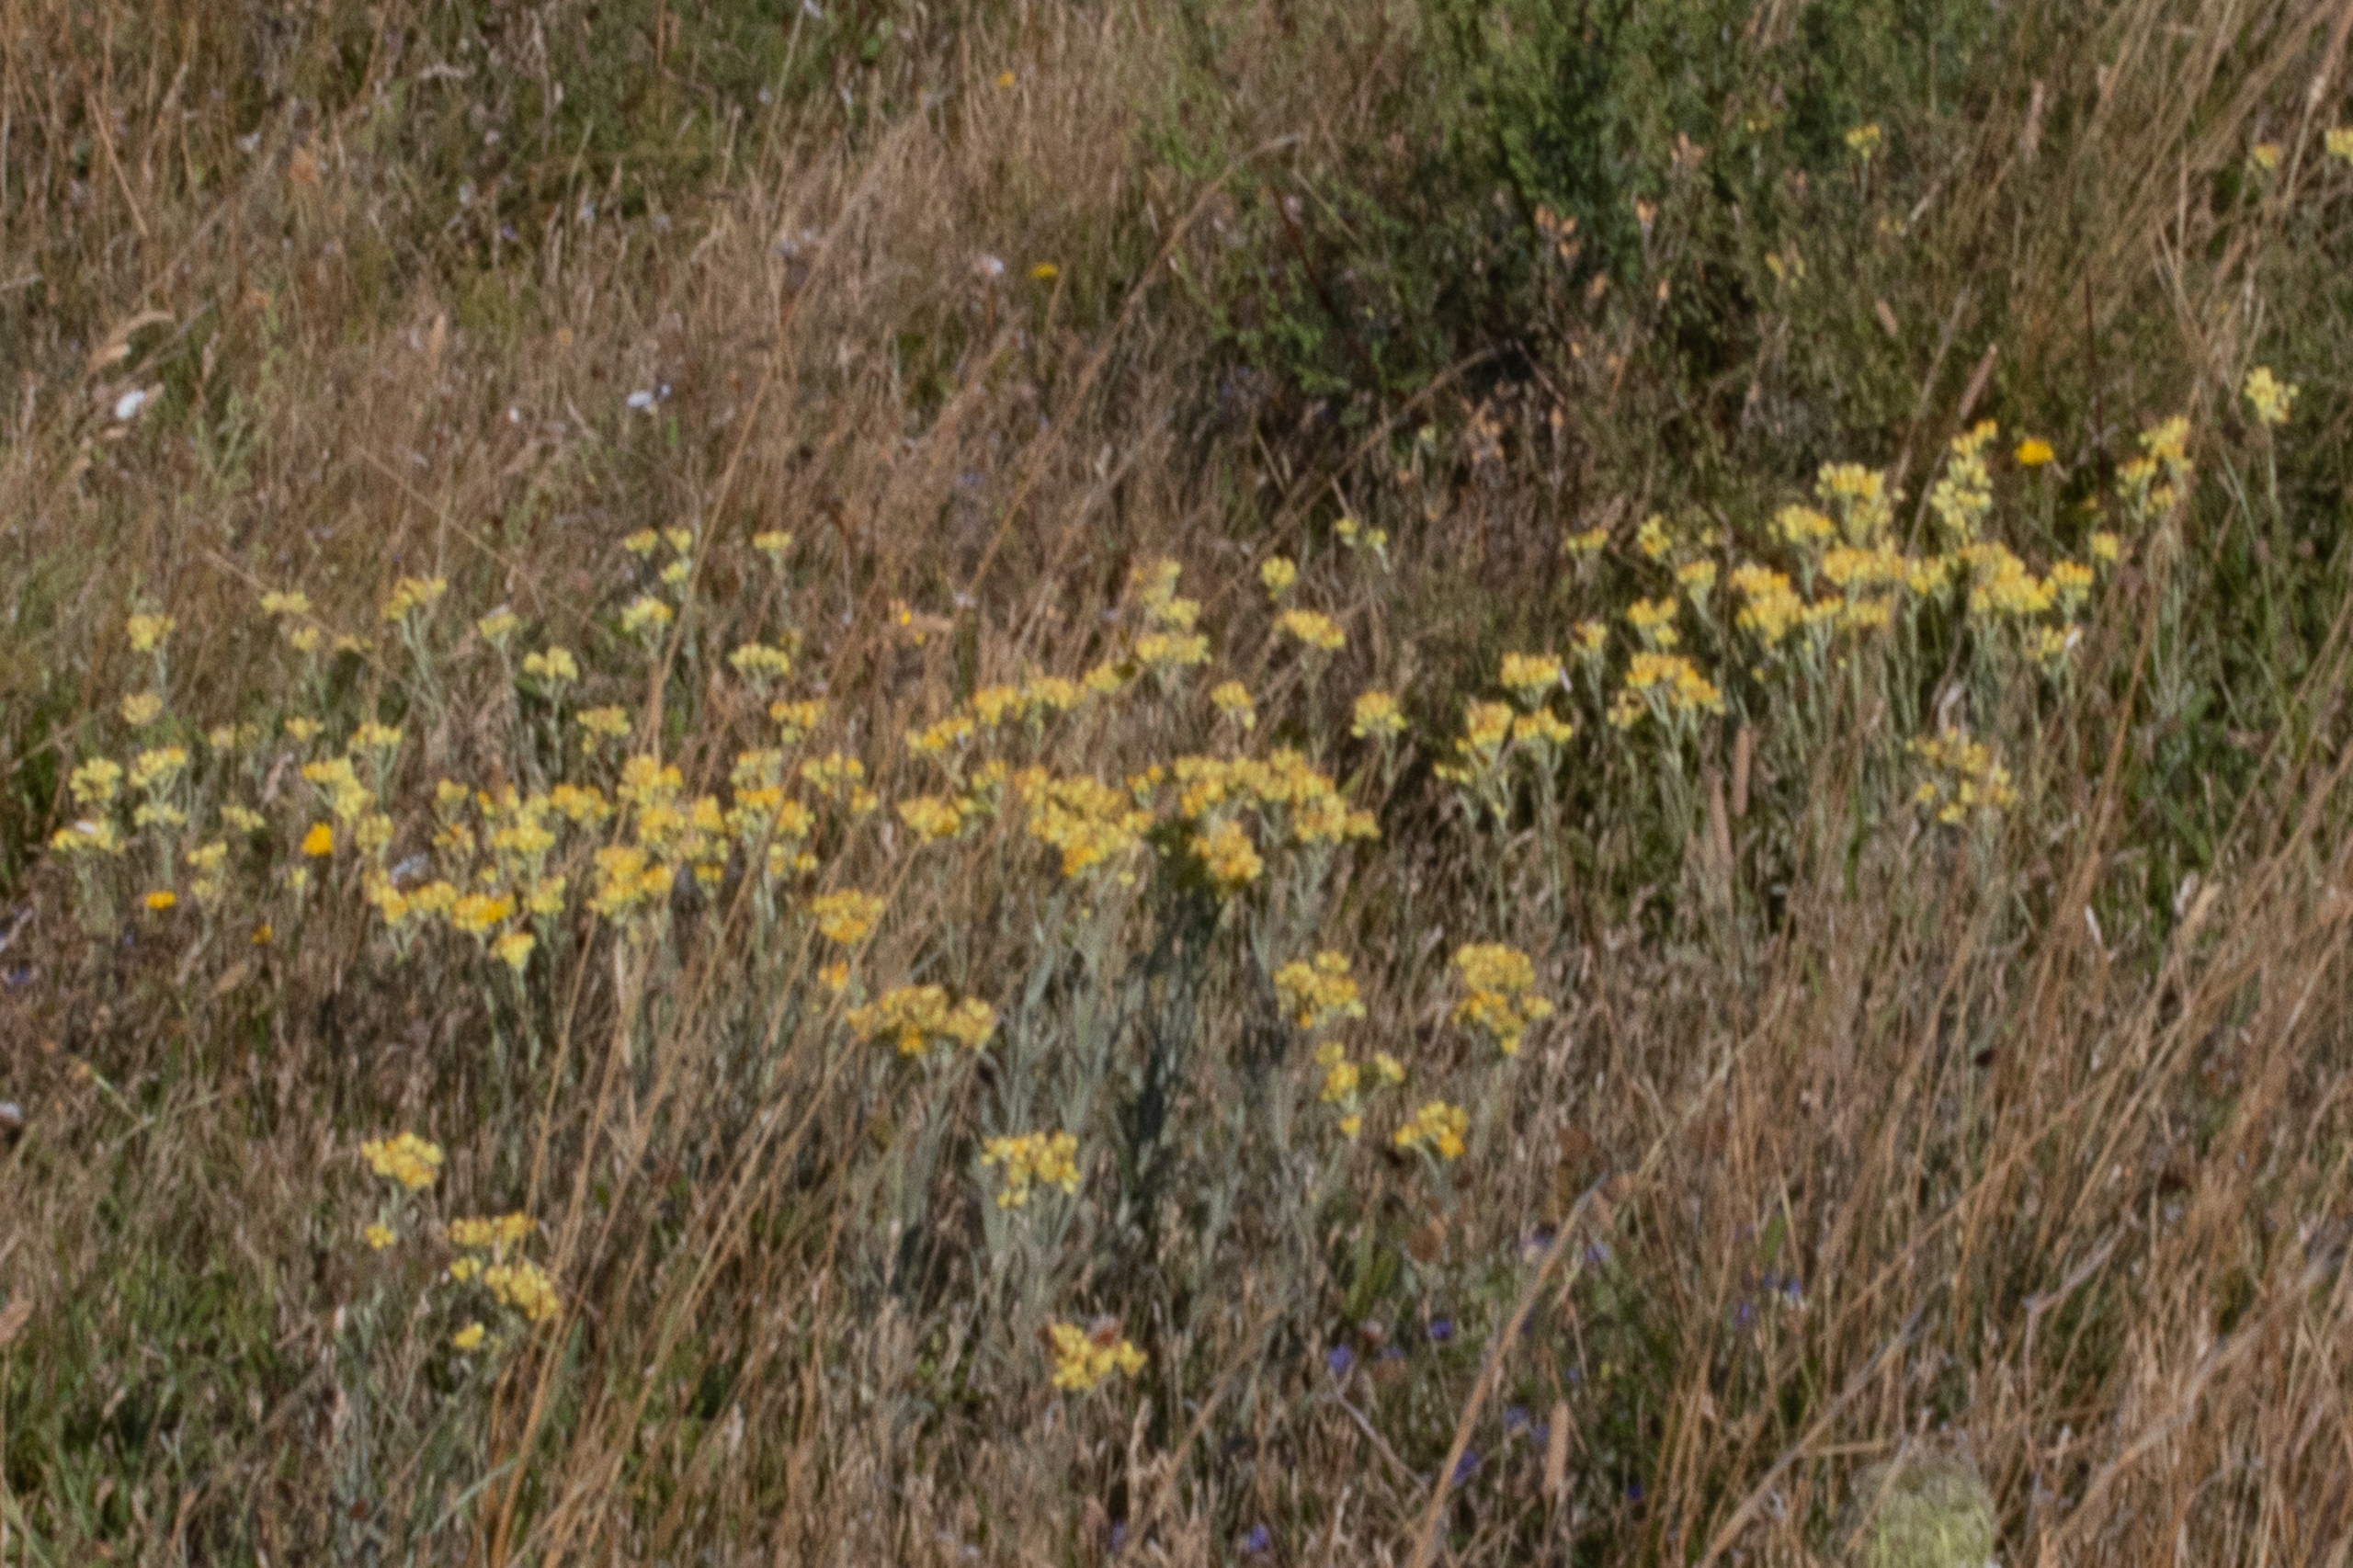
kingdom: Plantae
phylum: Tracheophyta
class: Magnoliopsida
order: Asterales
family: Asteraceae
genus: Helichrysum
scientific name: Helichrysum arenarium
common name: Gul evighedsblomst
